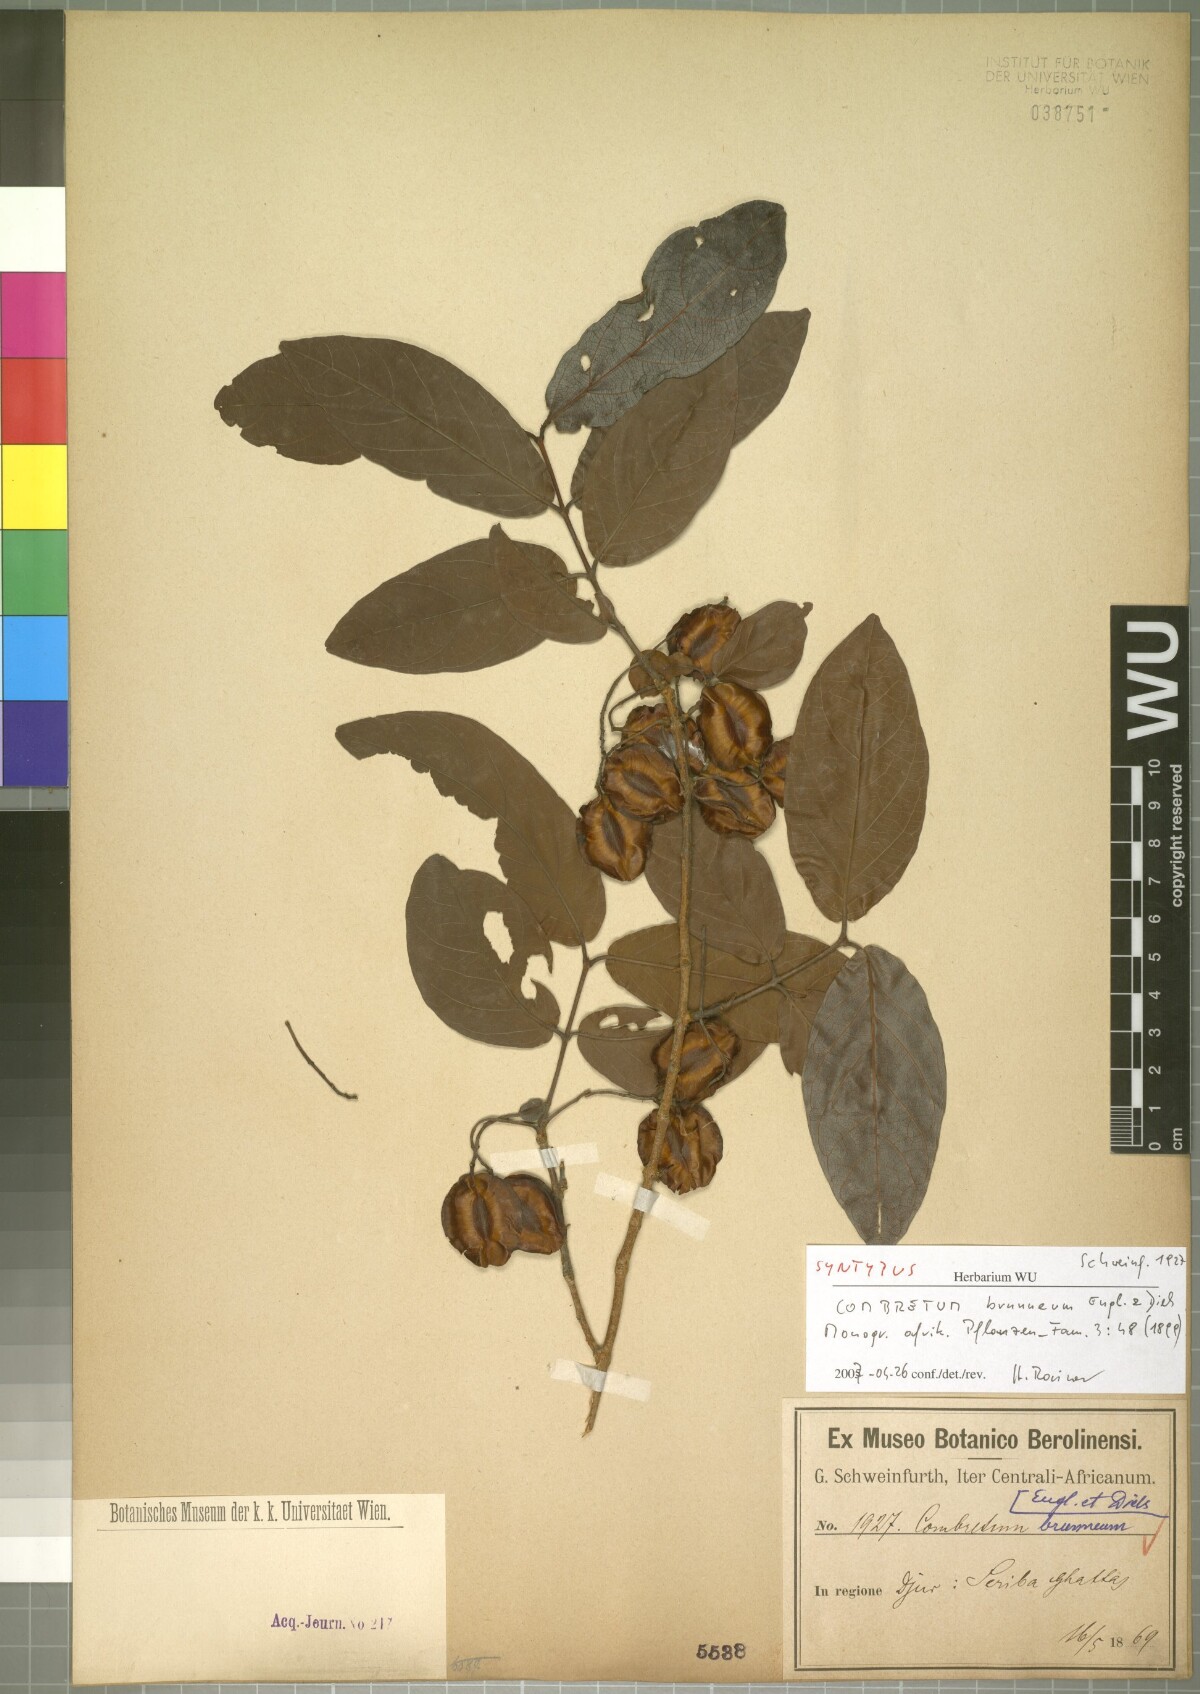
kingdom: Plantae
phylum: Tracheophyta
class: Magnoliopsida
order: Myrtales
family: Combretaceae
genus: Combretum
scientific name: Combretum brunneum
